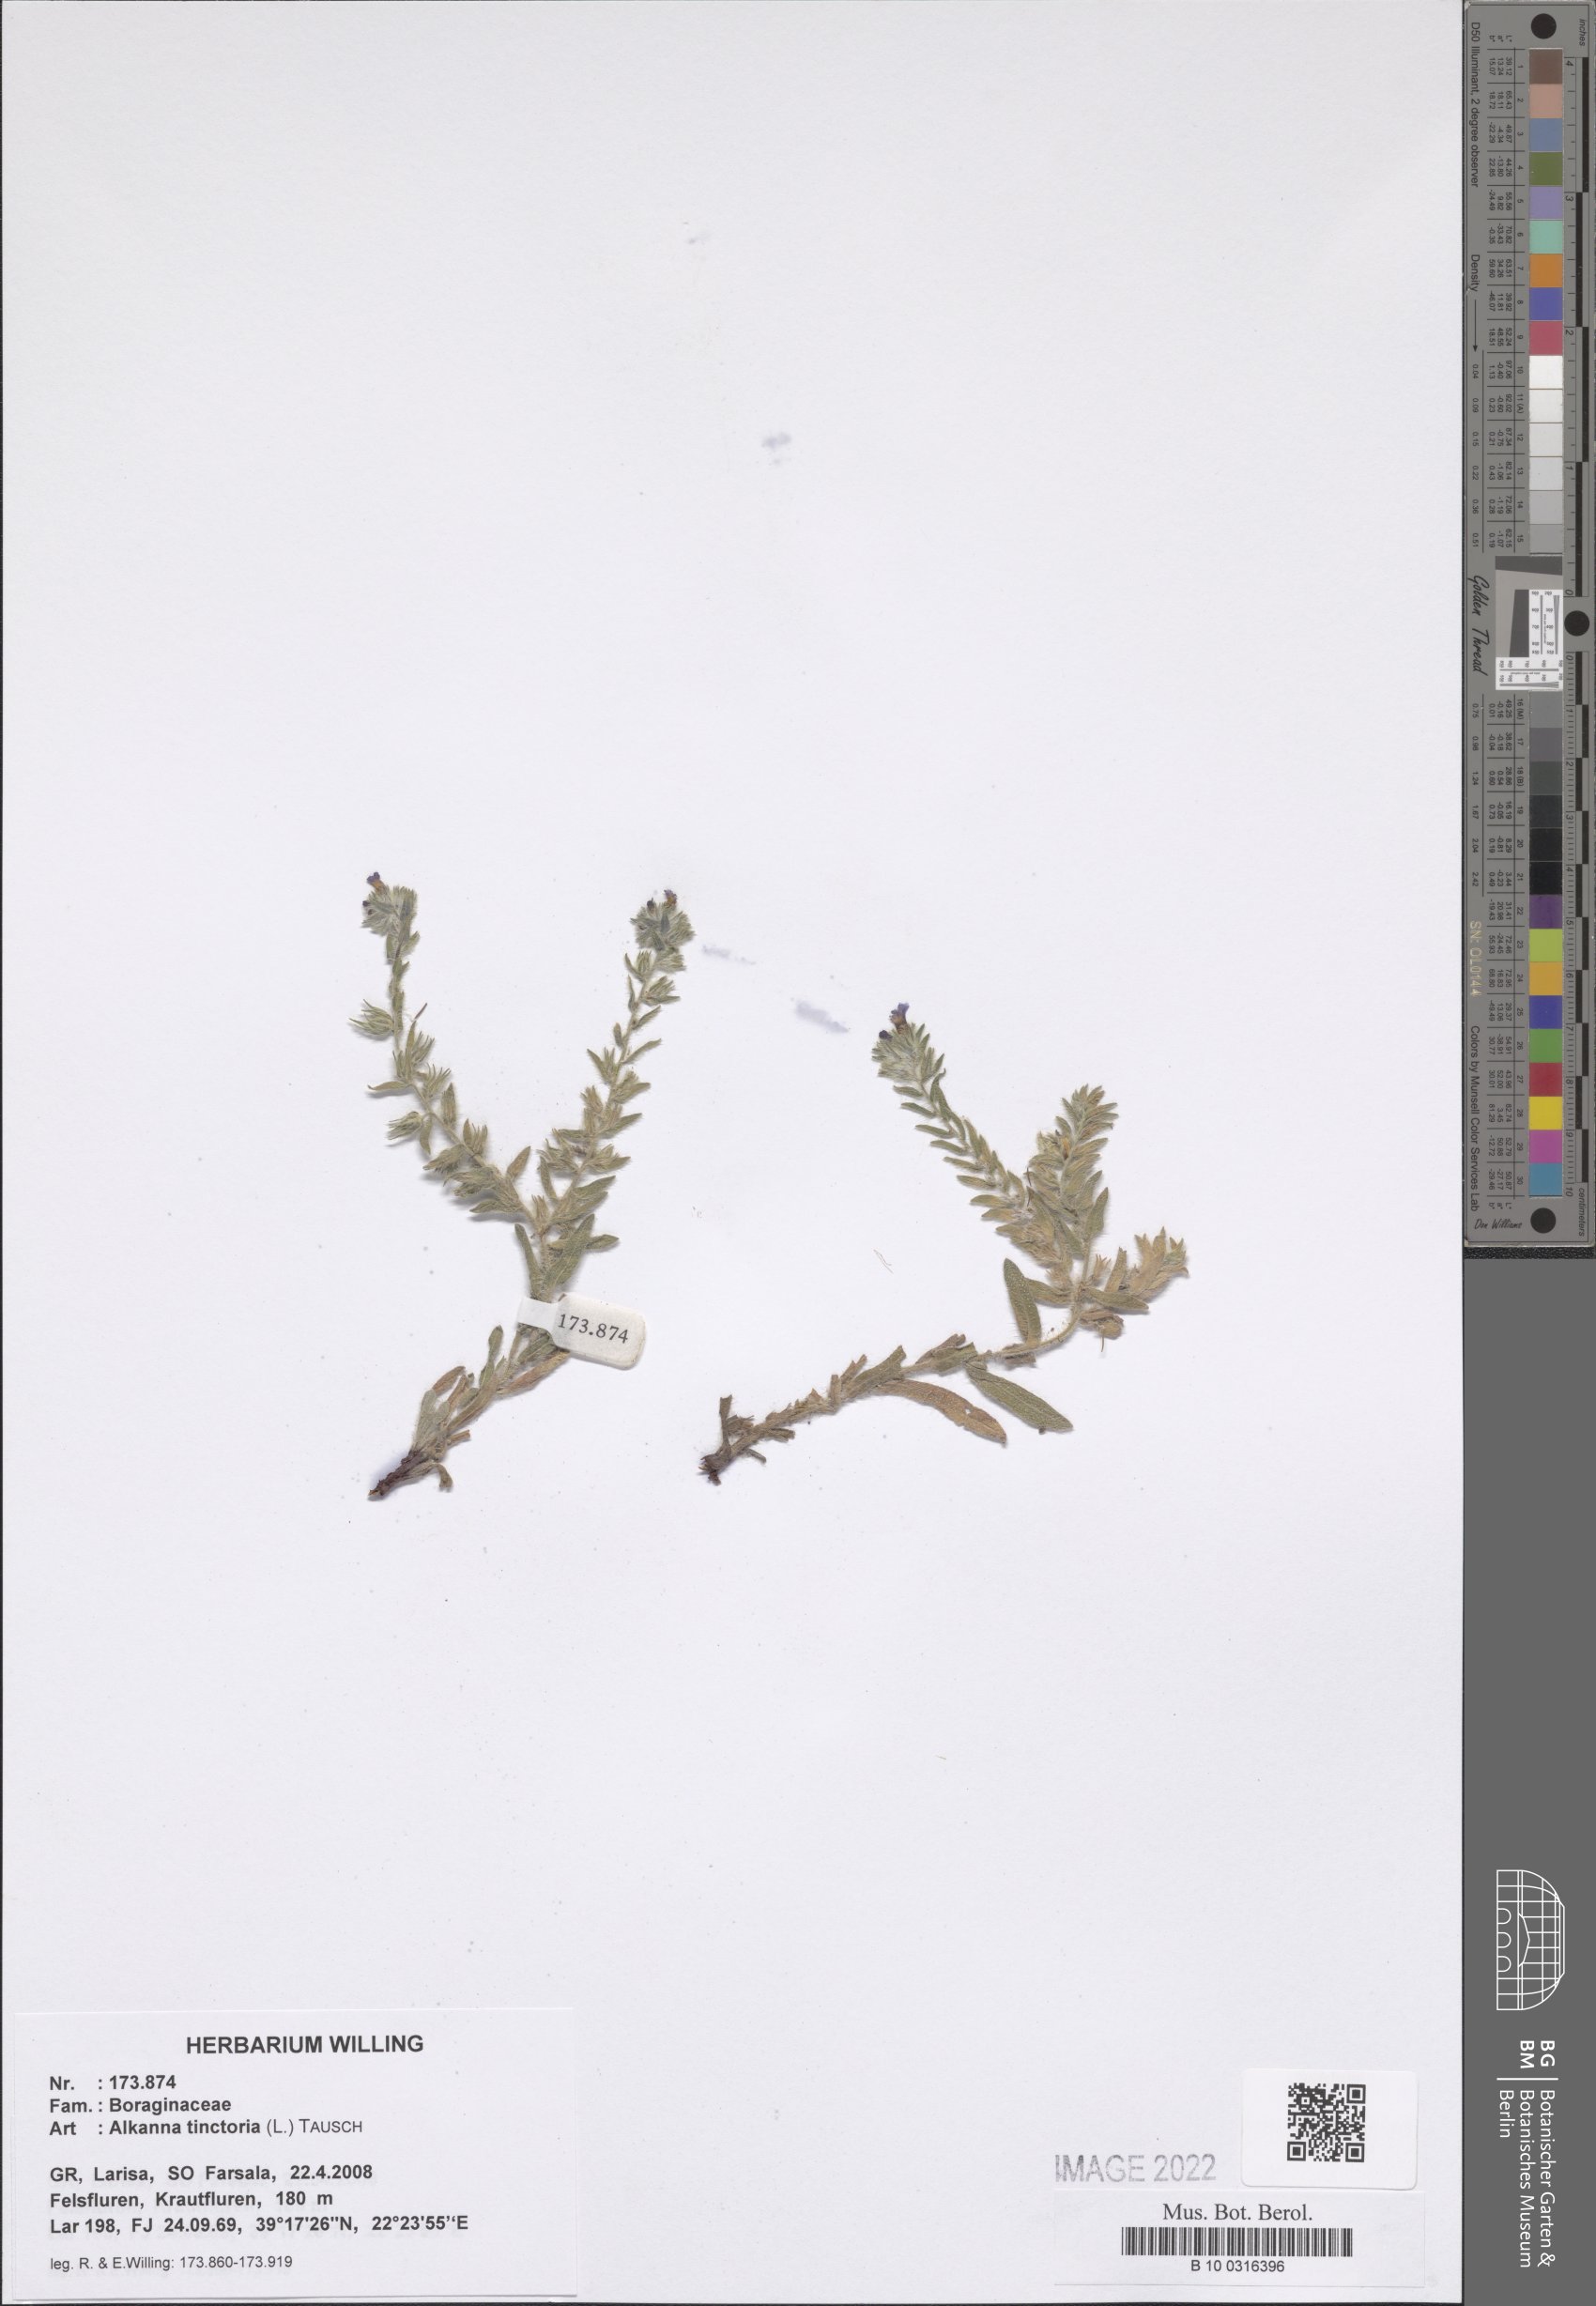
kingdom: Plantae
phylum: Tracheophyta
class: Magnoliopsida
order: Boraginales
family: Boraginaceae
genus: Alkanna
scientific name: Alkanna tinctoria
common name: Dyer's-alkanet
